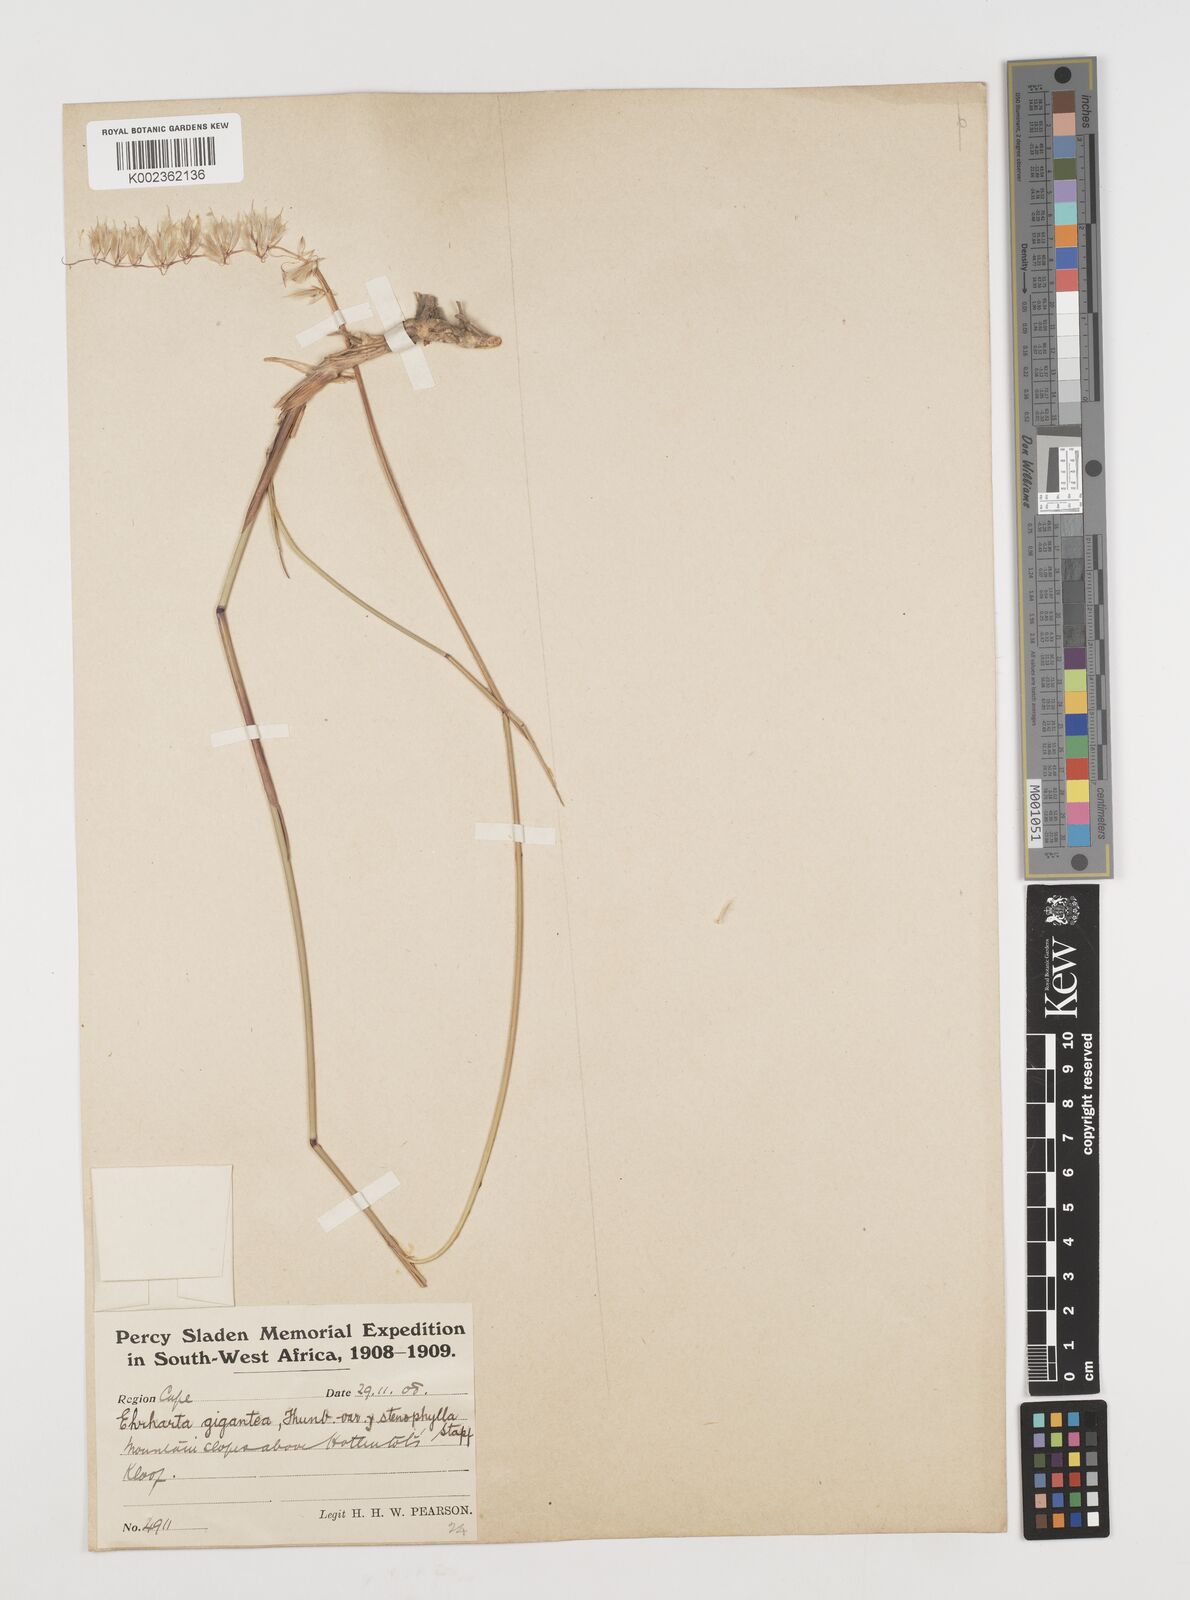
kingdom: Plantae
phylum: Tracheophyta
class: Liliopsida
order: Poales
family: Poaceae
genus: Ehrharta
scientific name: Ehrharta thunbergii
